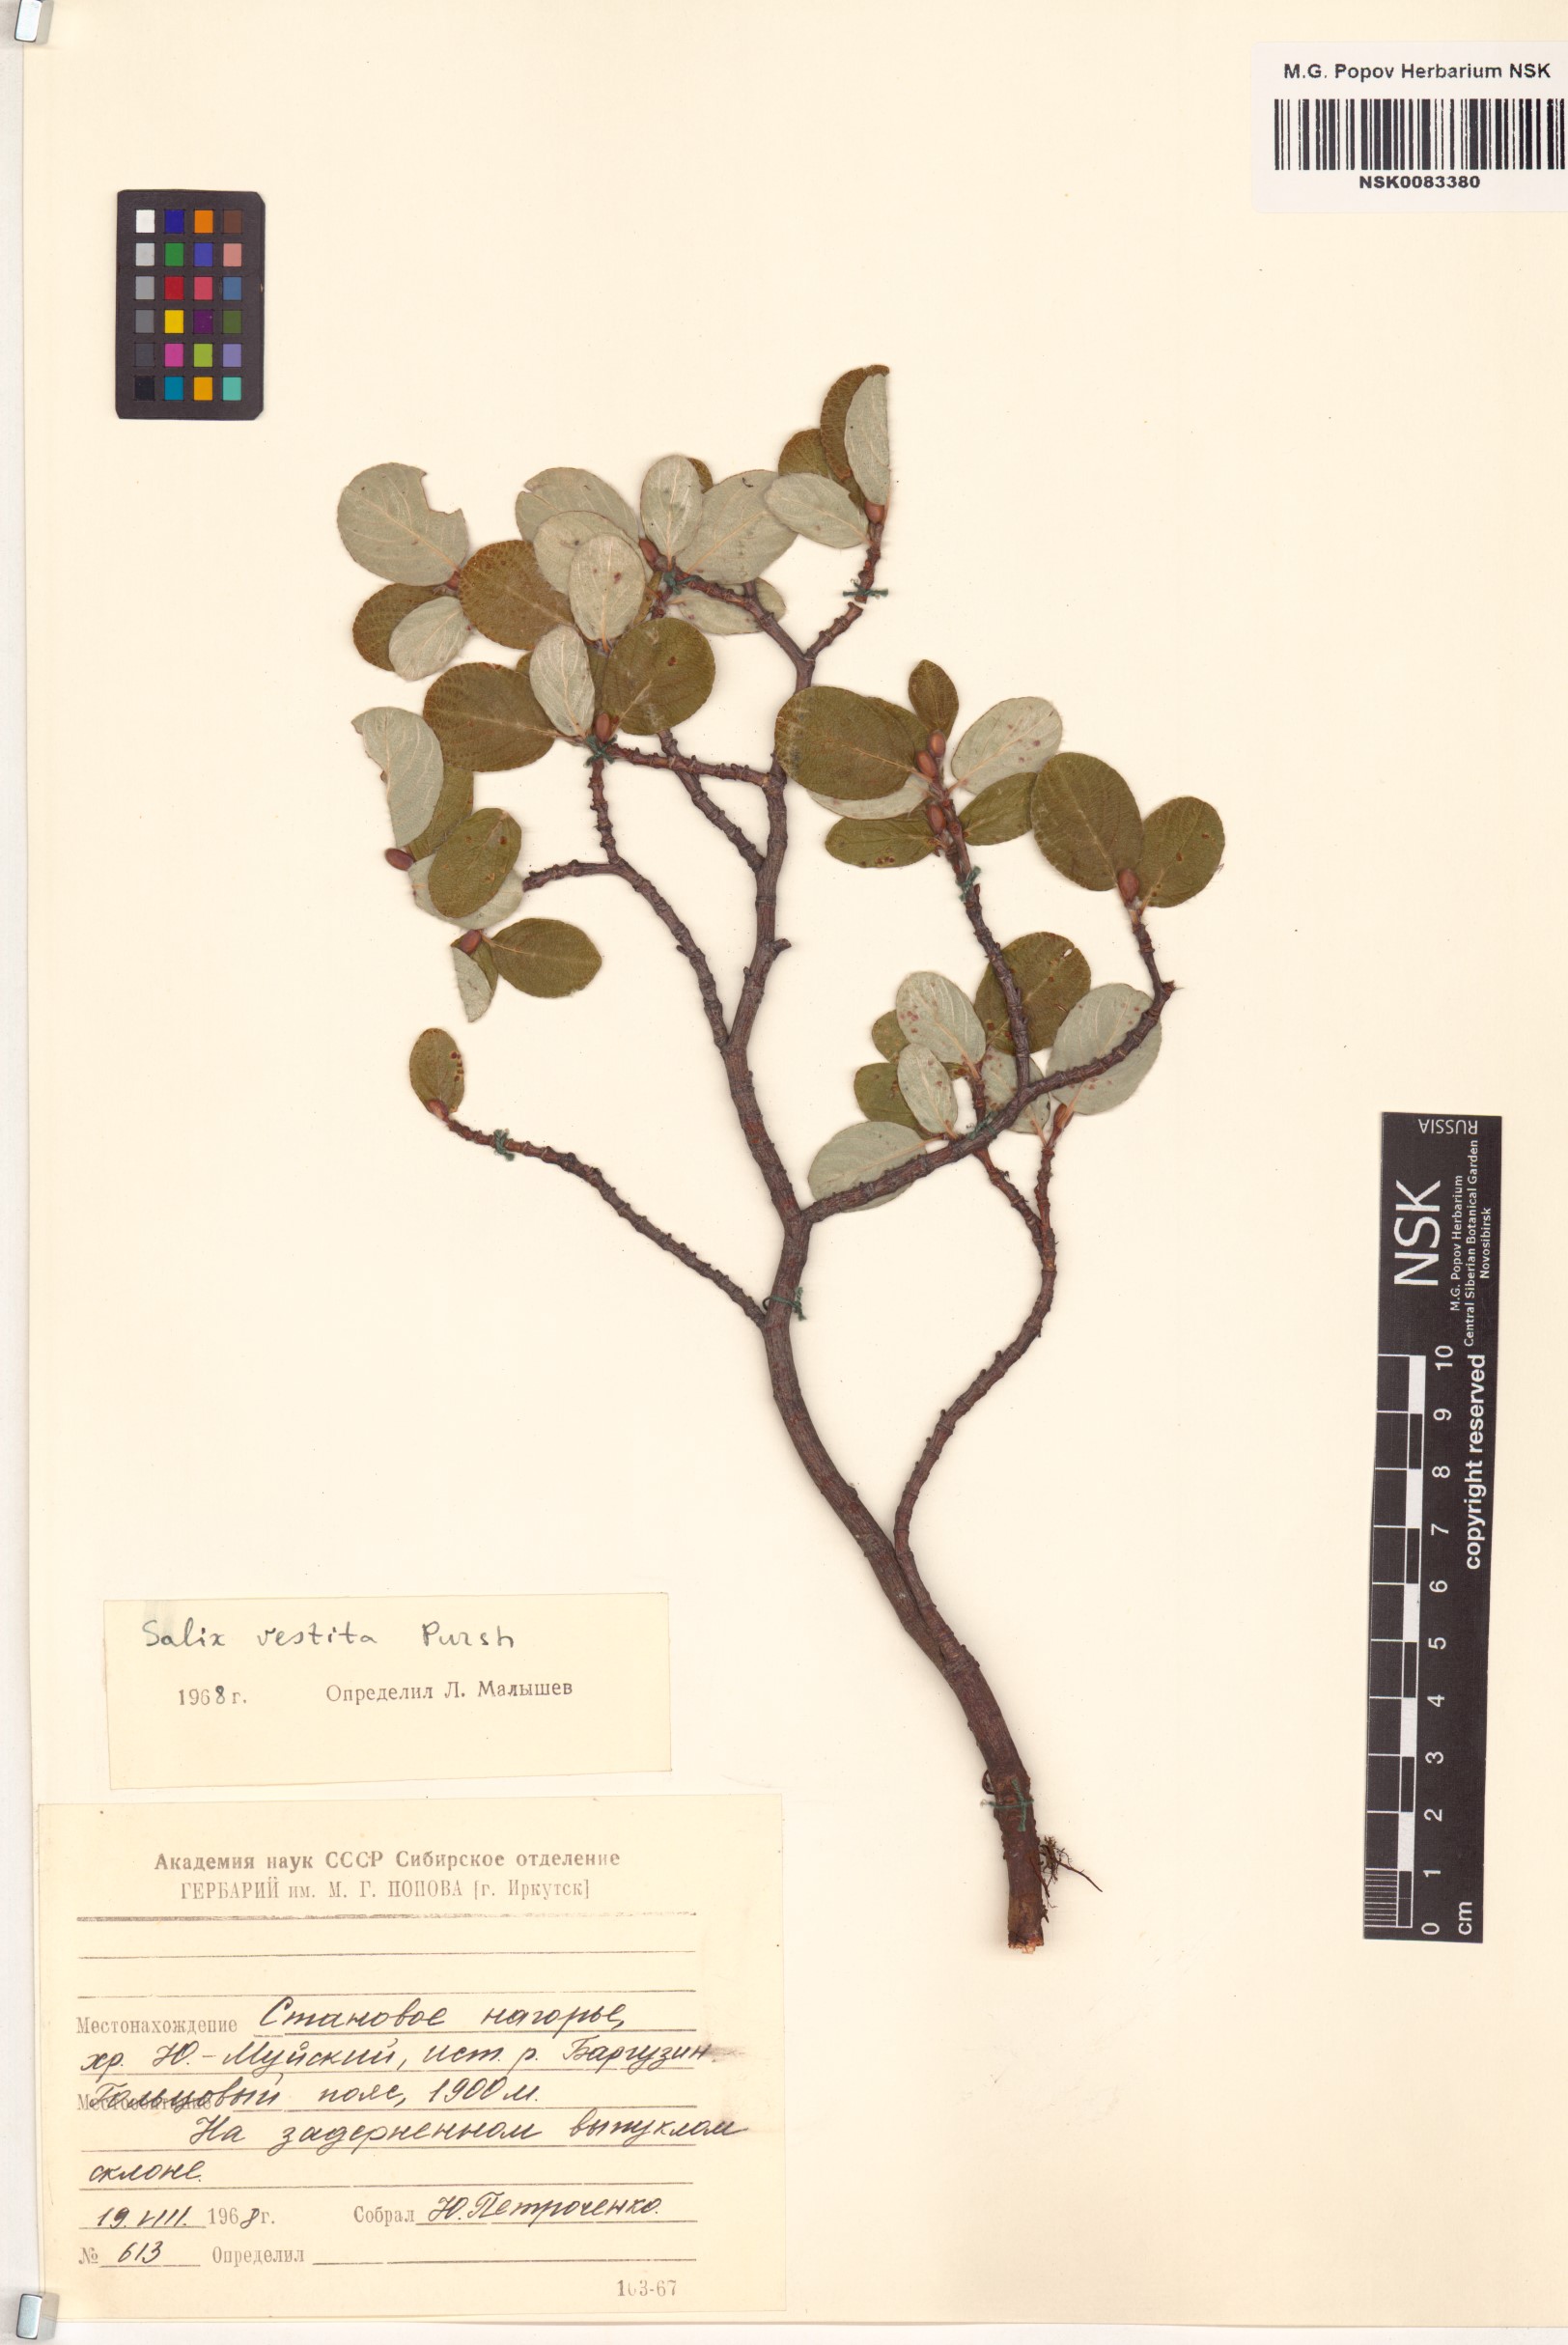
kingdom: Plantae
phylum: Tracheophyta
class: Magnoliopsida
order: Malpighiales
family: Salicaceae
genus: Salix
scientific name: Salix vestita
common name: Hairy willow
